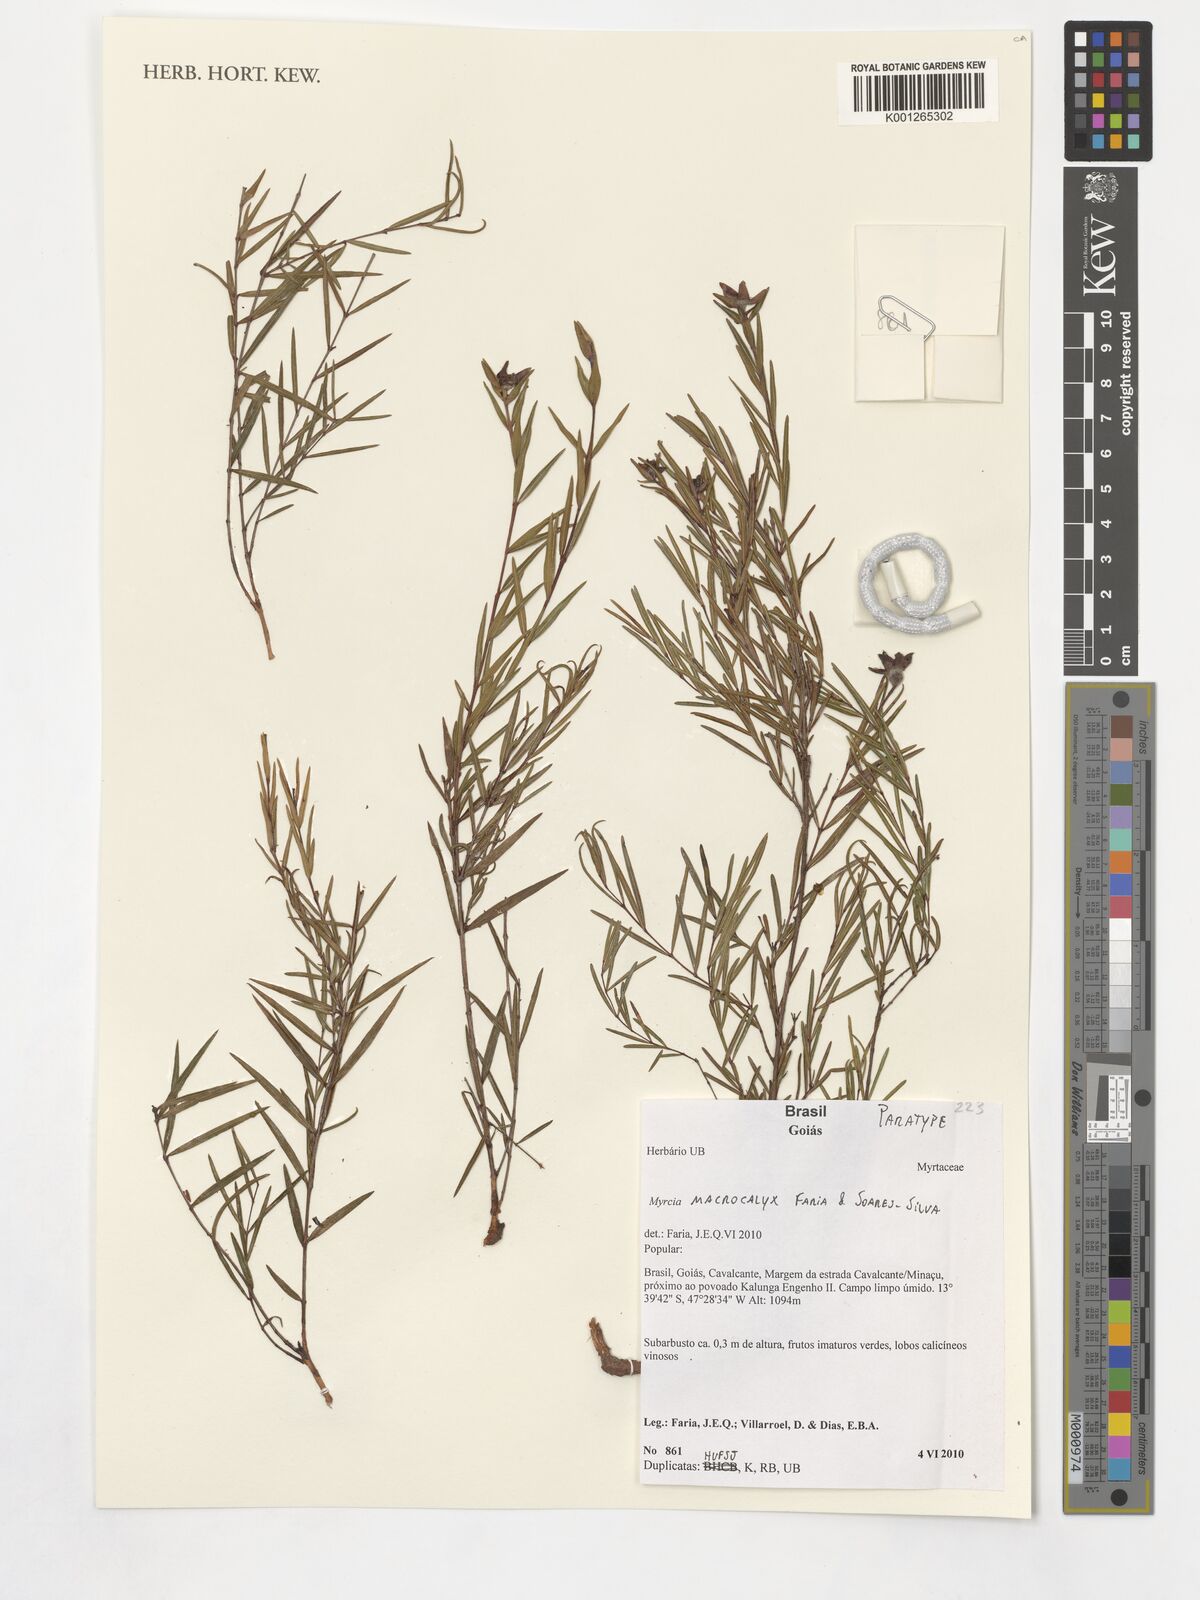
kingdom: Plantae
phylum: Tracheophyta
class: Magnoliopsida
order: Myrtales
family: Myrtaceae
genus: Myrcia
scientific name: Myrcia macrocalyx
